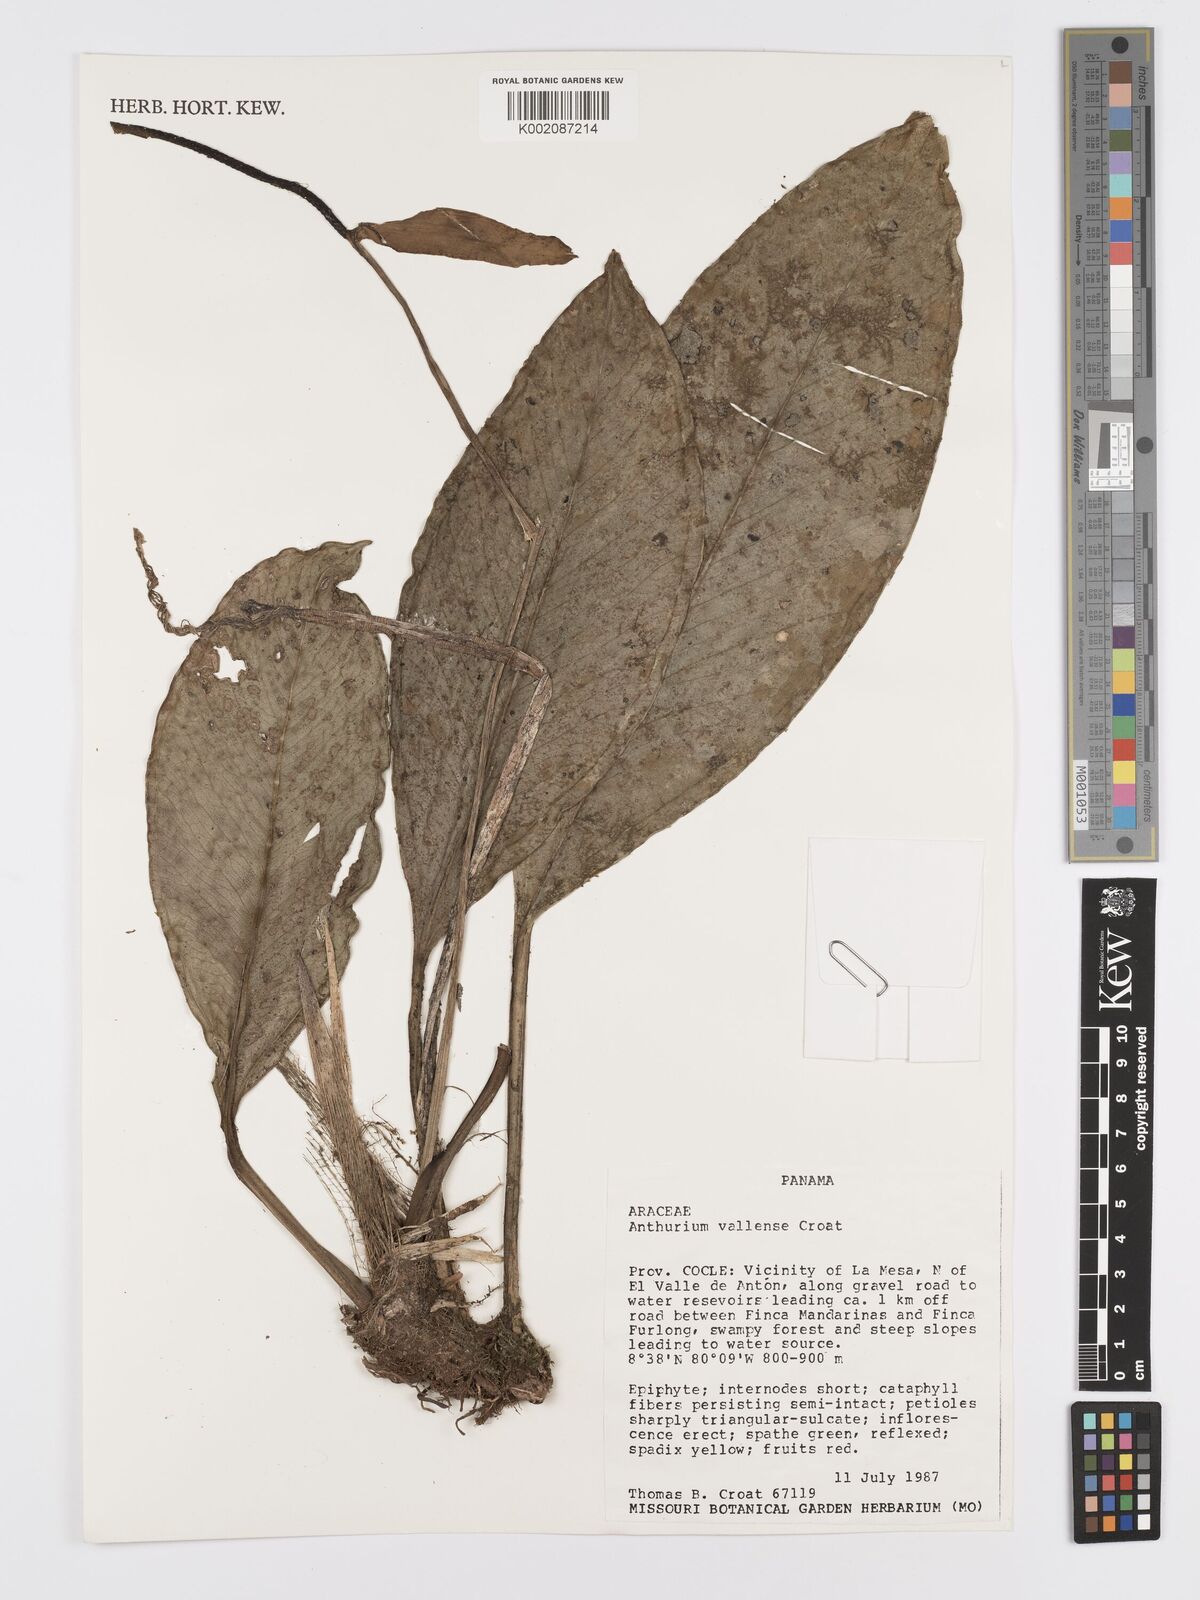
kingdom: Plantae
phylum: Tracheophyta
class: Liliopsida
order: Alismatales
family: Araceae
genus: Anthurium
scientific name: Anthurium vallense
